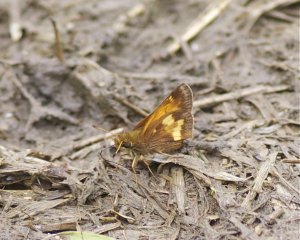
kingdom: Animalia
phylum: Arthropoda
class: Insecta
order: Lepidoptera
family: Hesperiidae
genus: Lon
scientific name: Lon hobomok
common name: Hobomok Skipper
